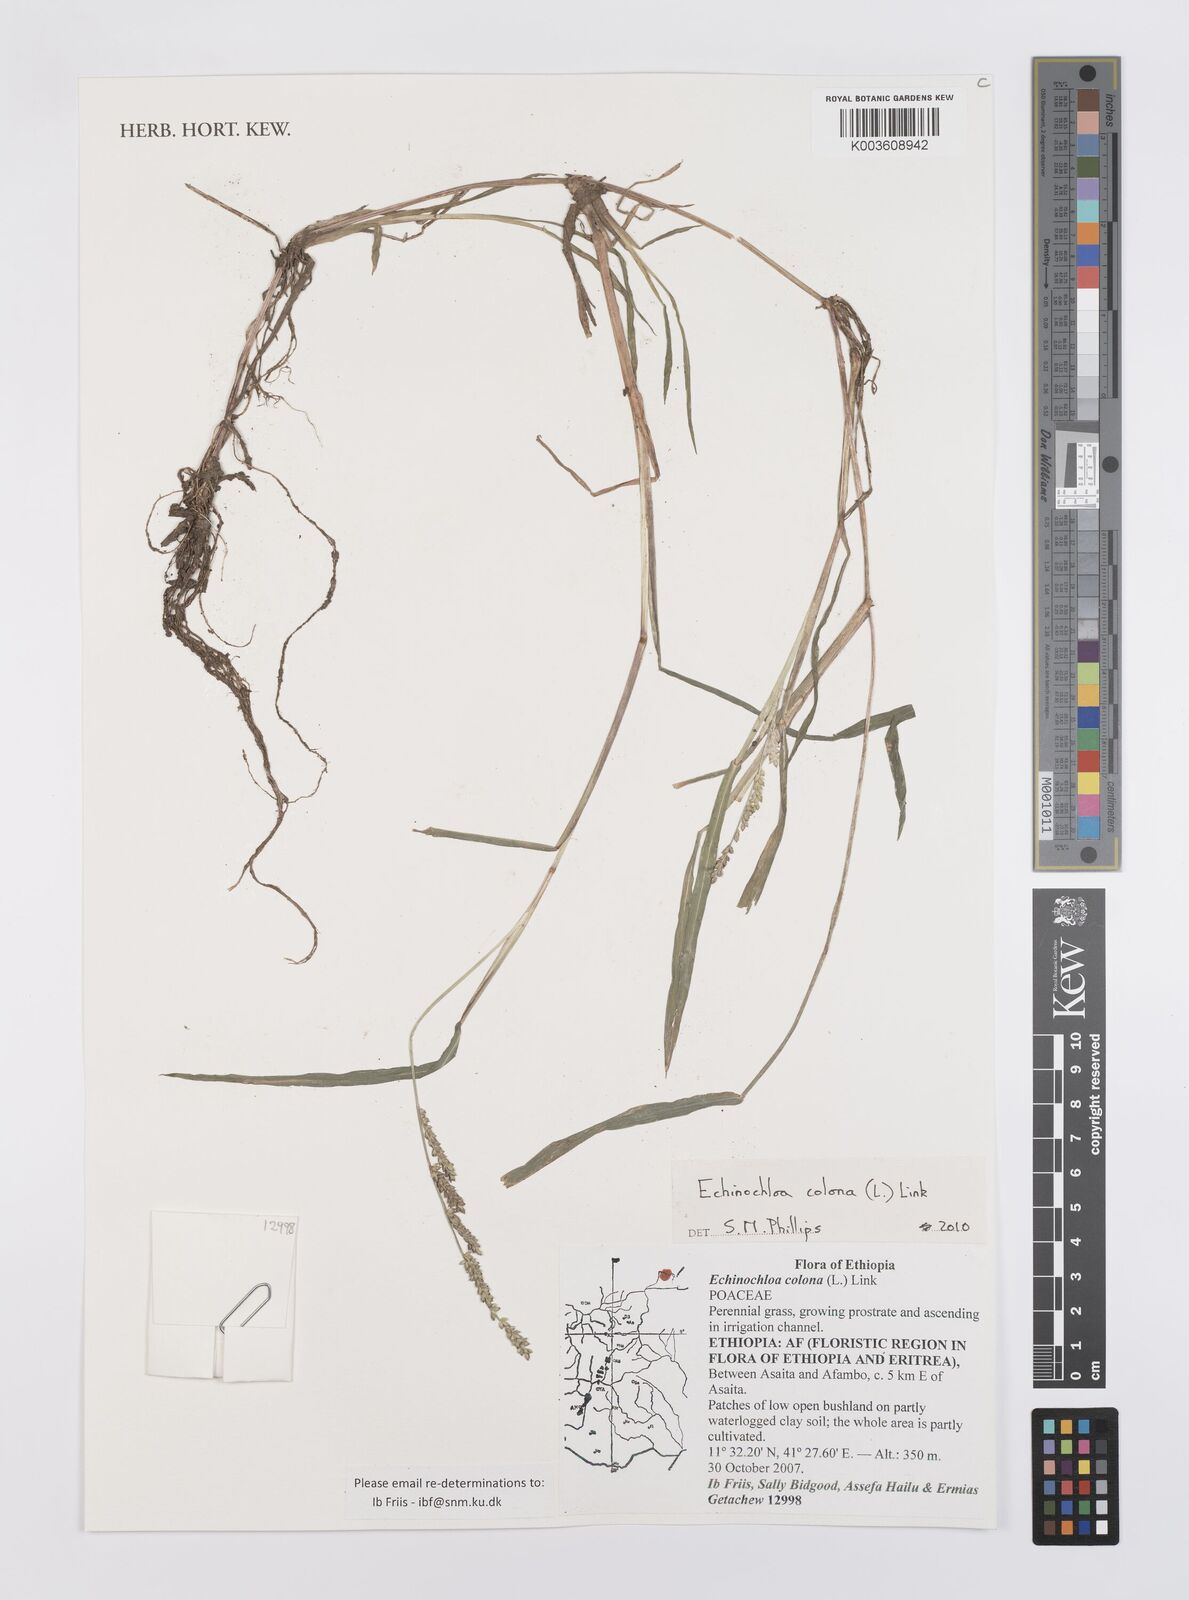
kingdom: Plantae
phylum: Tracheophyta
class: Liliopsida
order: Poales
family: Poaceae
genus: Echinochloa
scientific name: Echinochloa colonum
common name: Jungle rice
